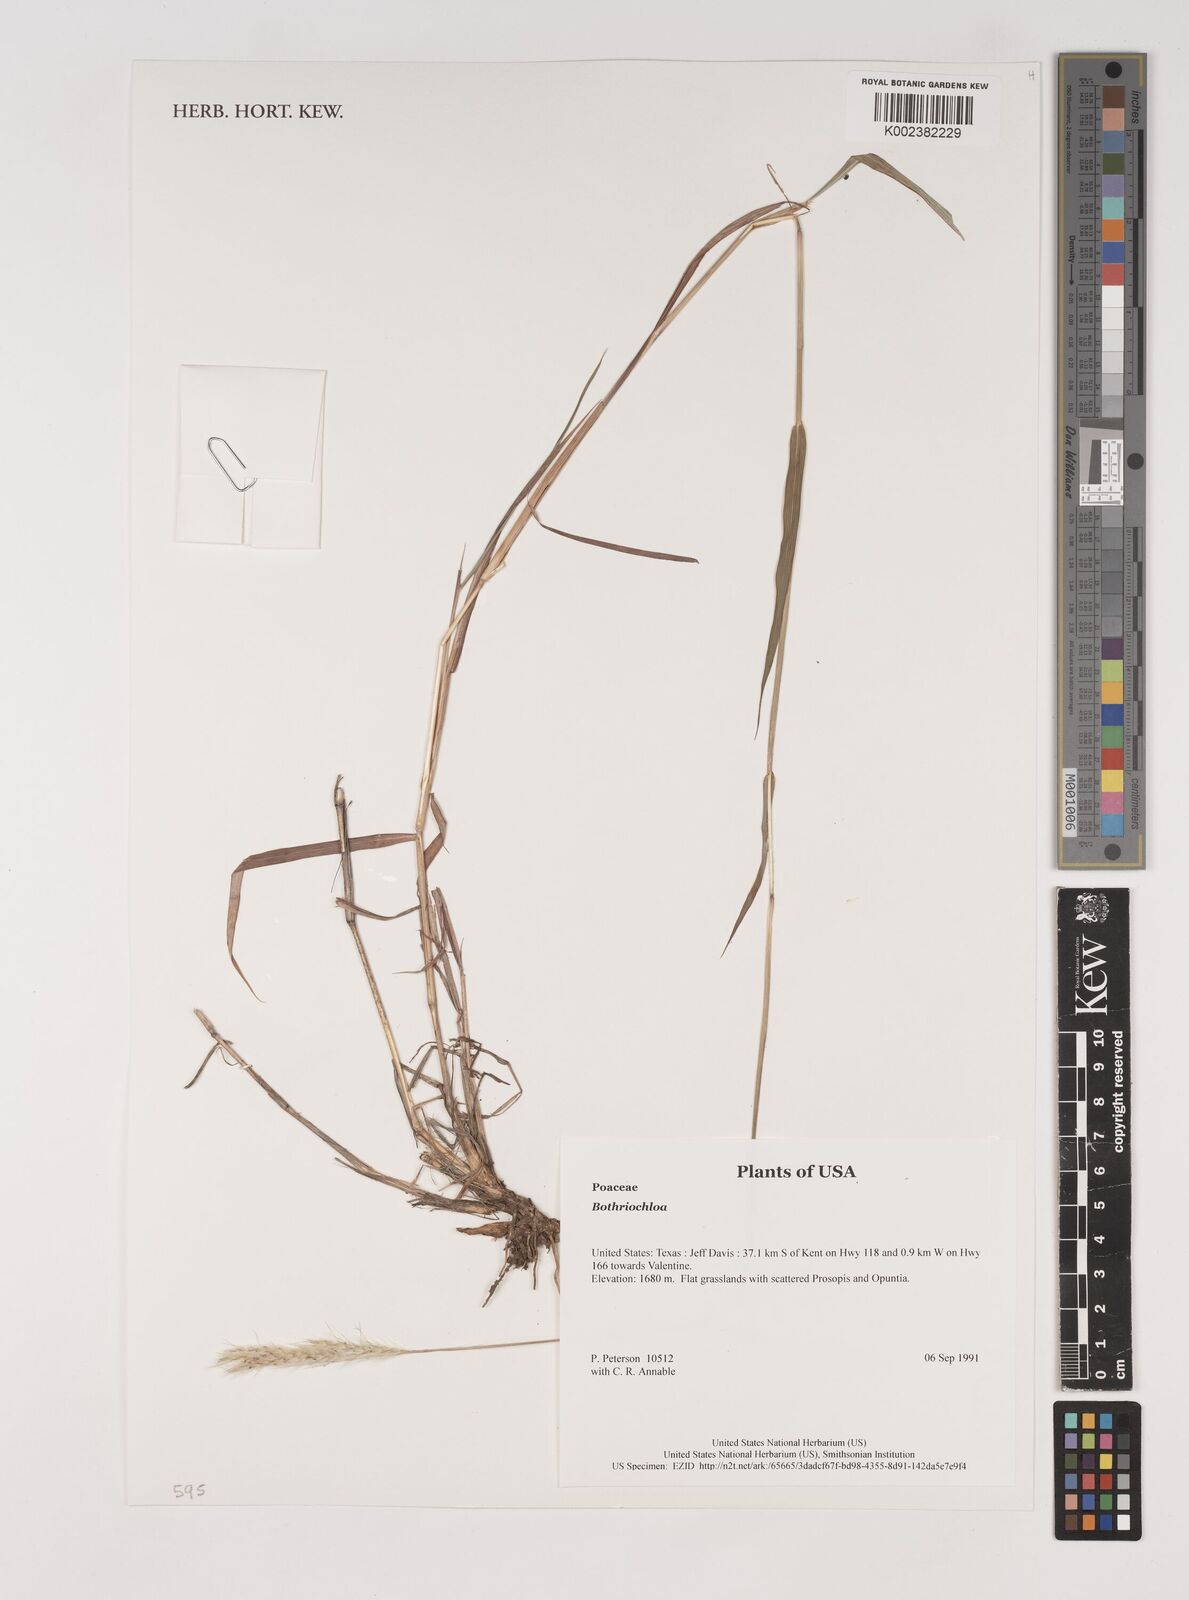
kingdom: Plantae
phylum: Tracheophyta
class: Liliopsida
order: Poales
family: Poaceae
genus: Bothriochloa
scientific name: Bothriochloa
